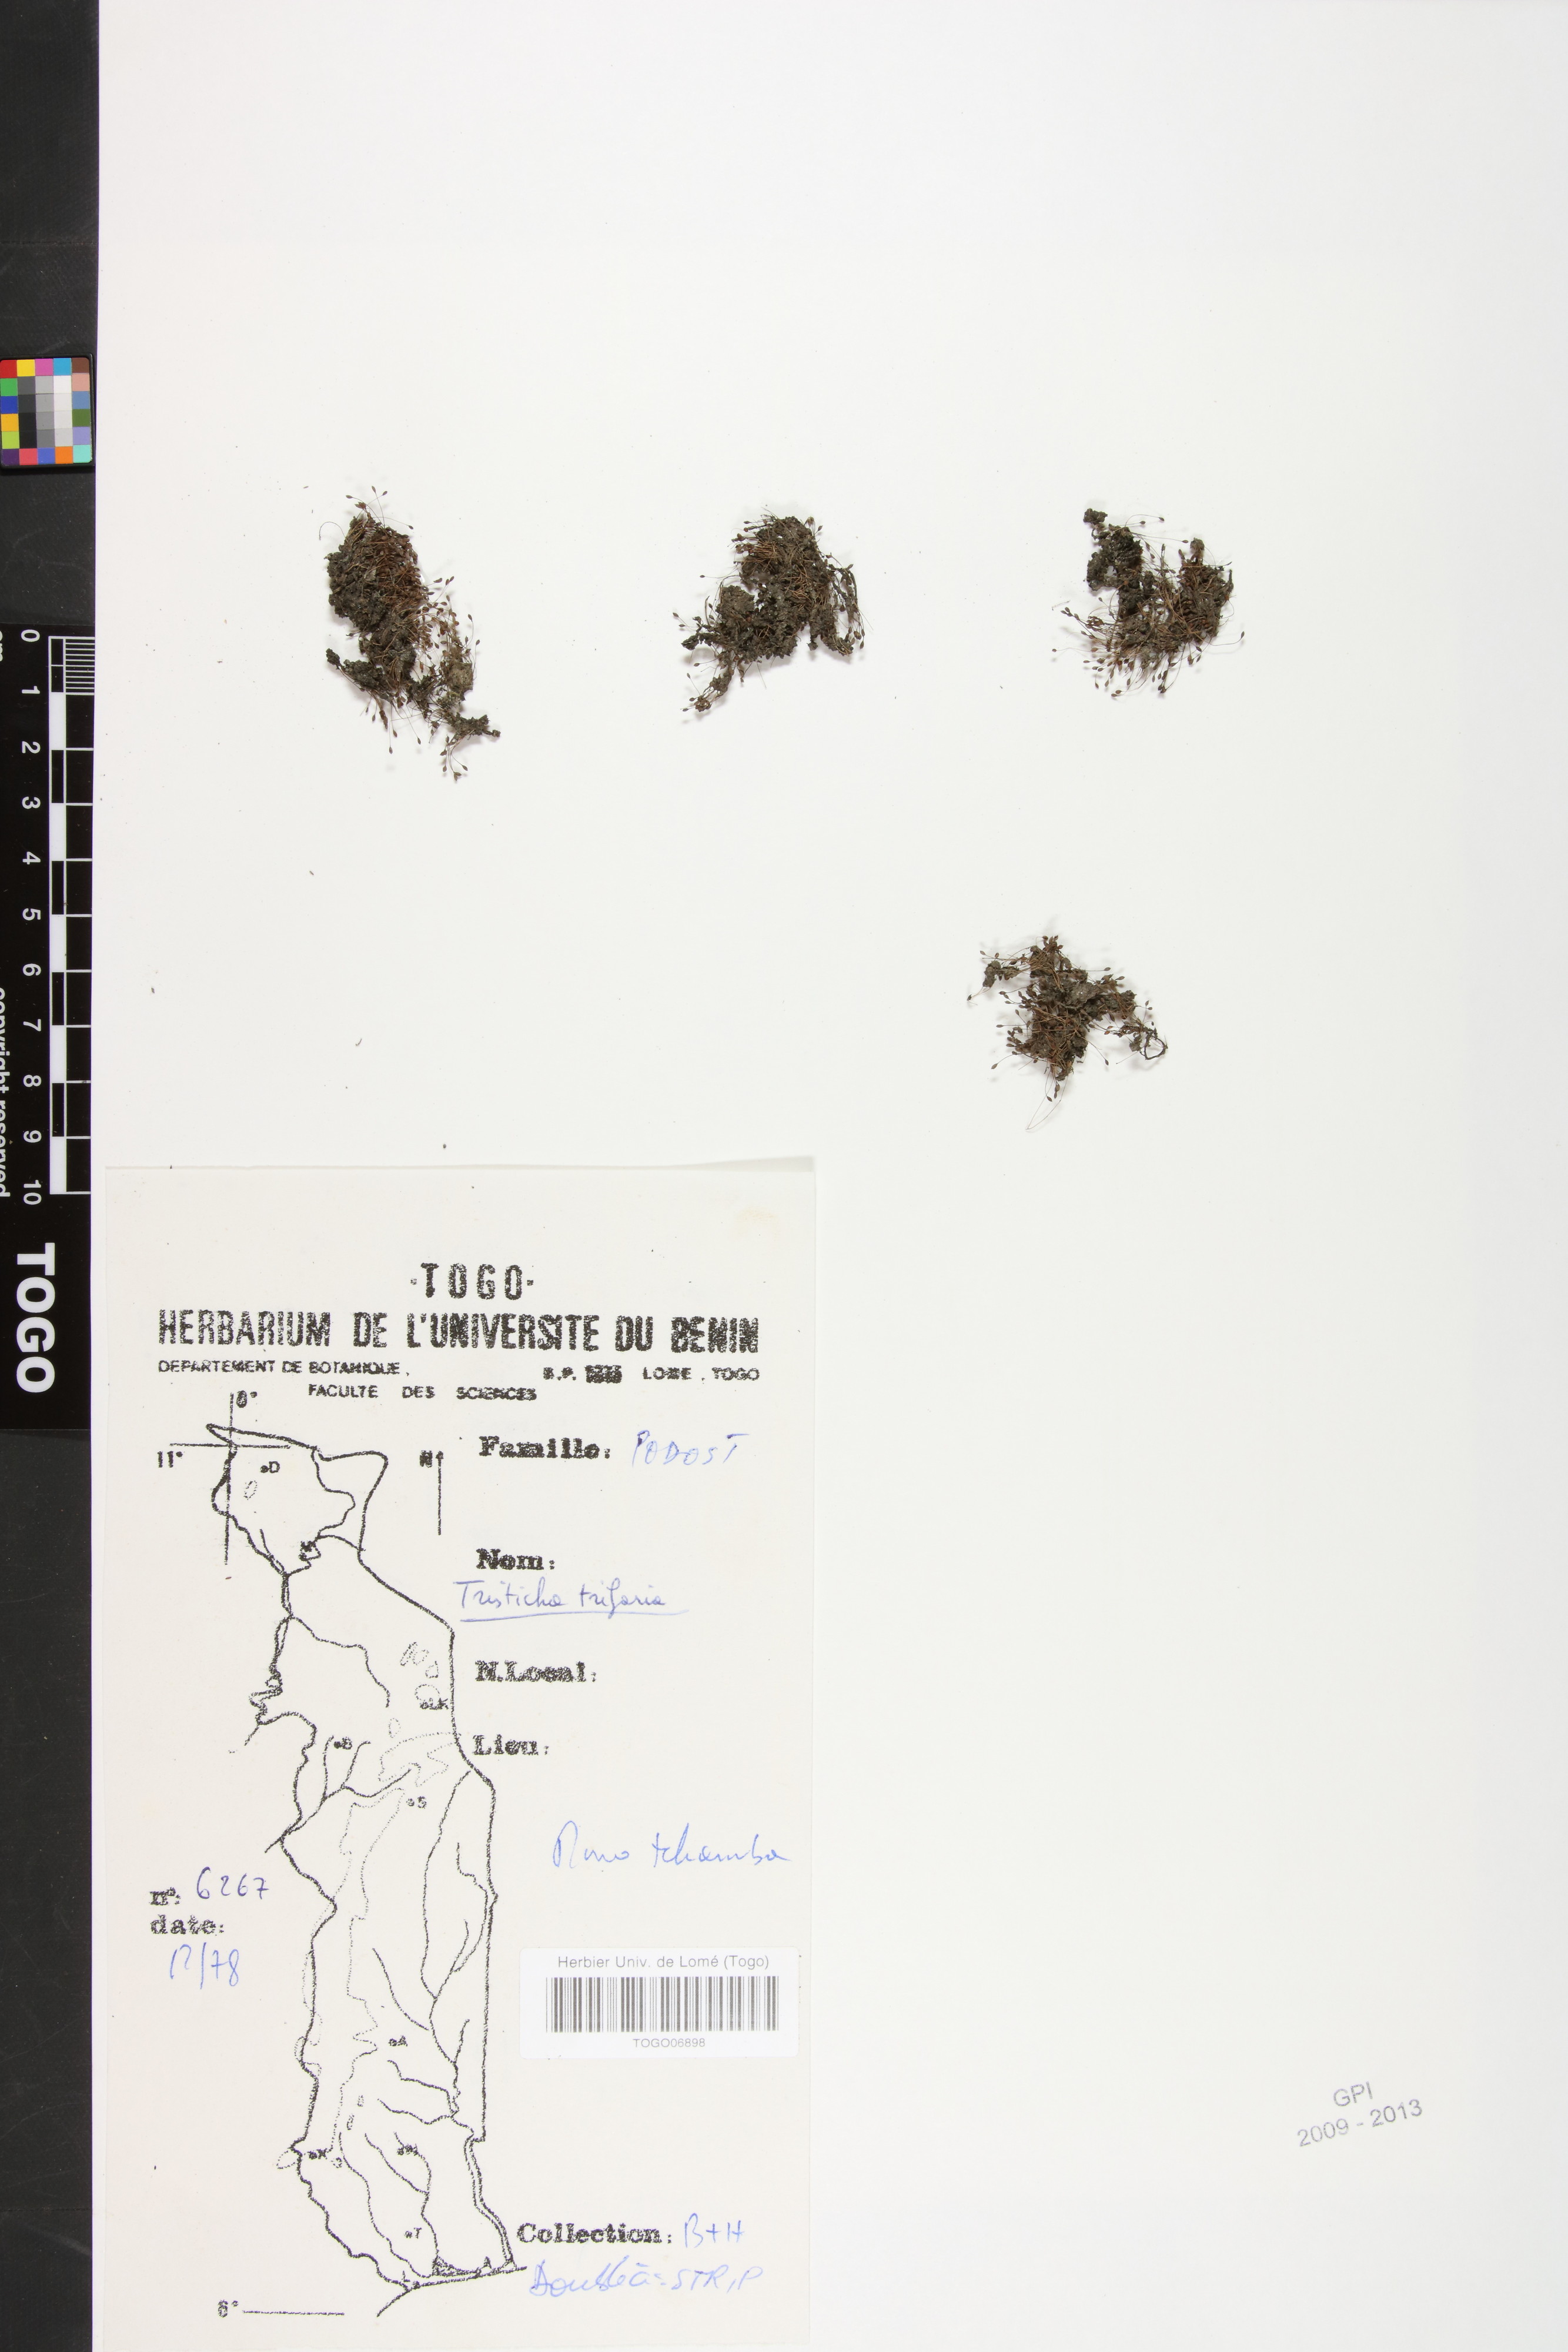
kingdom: Plantae
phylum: Tracheophyta
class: Magnoliopsida
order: Malpighiales
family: Podostemaceae
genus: Tristicha
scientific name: Tristicha trifaria
